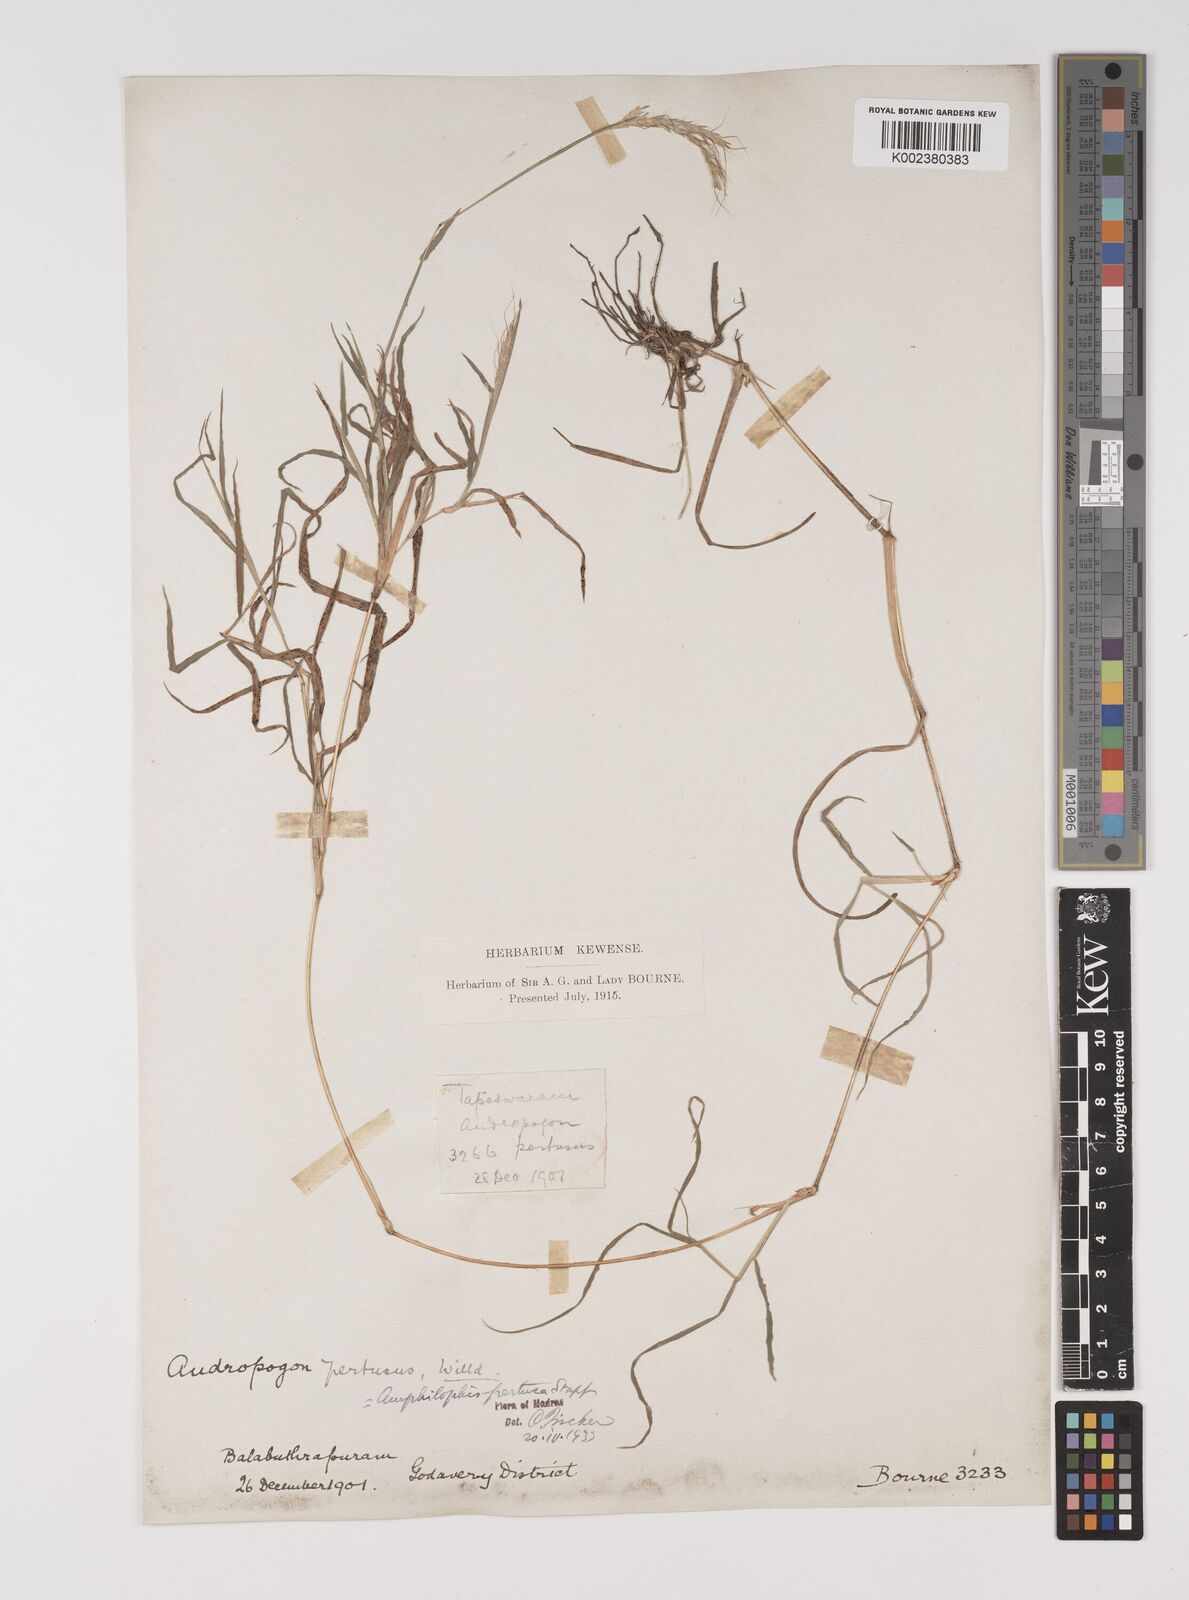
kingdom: Plantae
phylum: Tracheophyta
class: Liliopsida
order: Poales
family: Poaceae
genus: Bothriochloa
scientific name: Bothriochloa pertusa
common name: Pitted beardgrass
